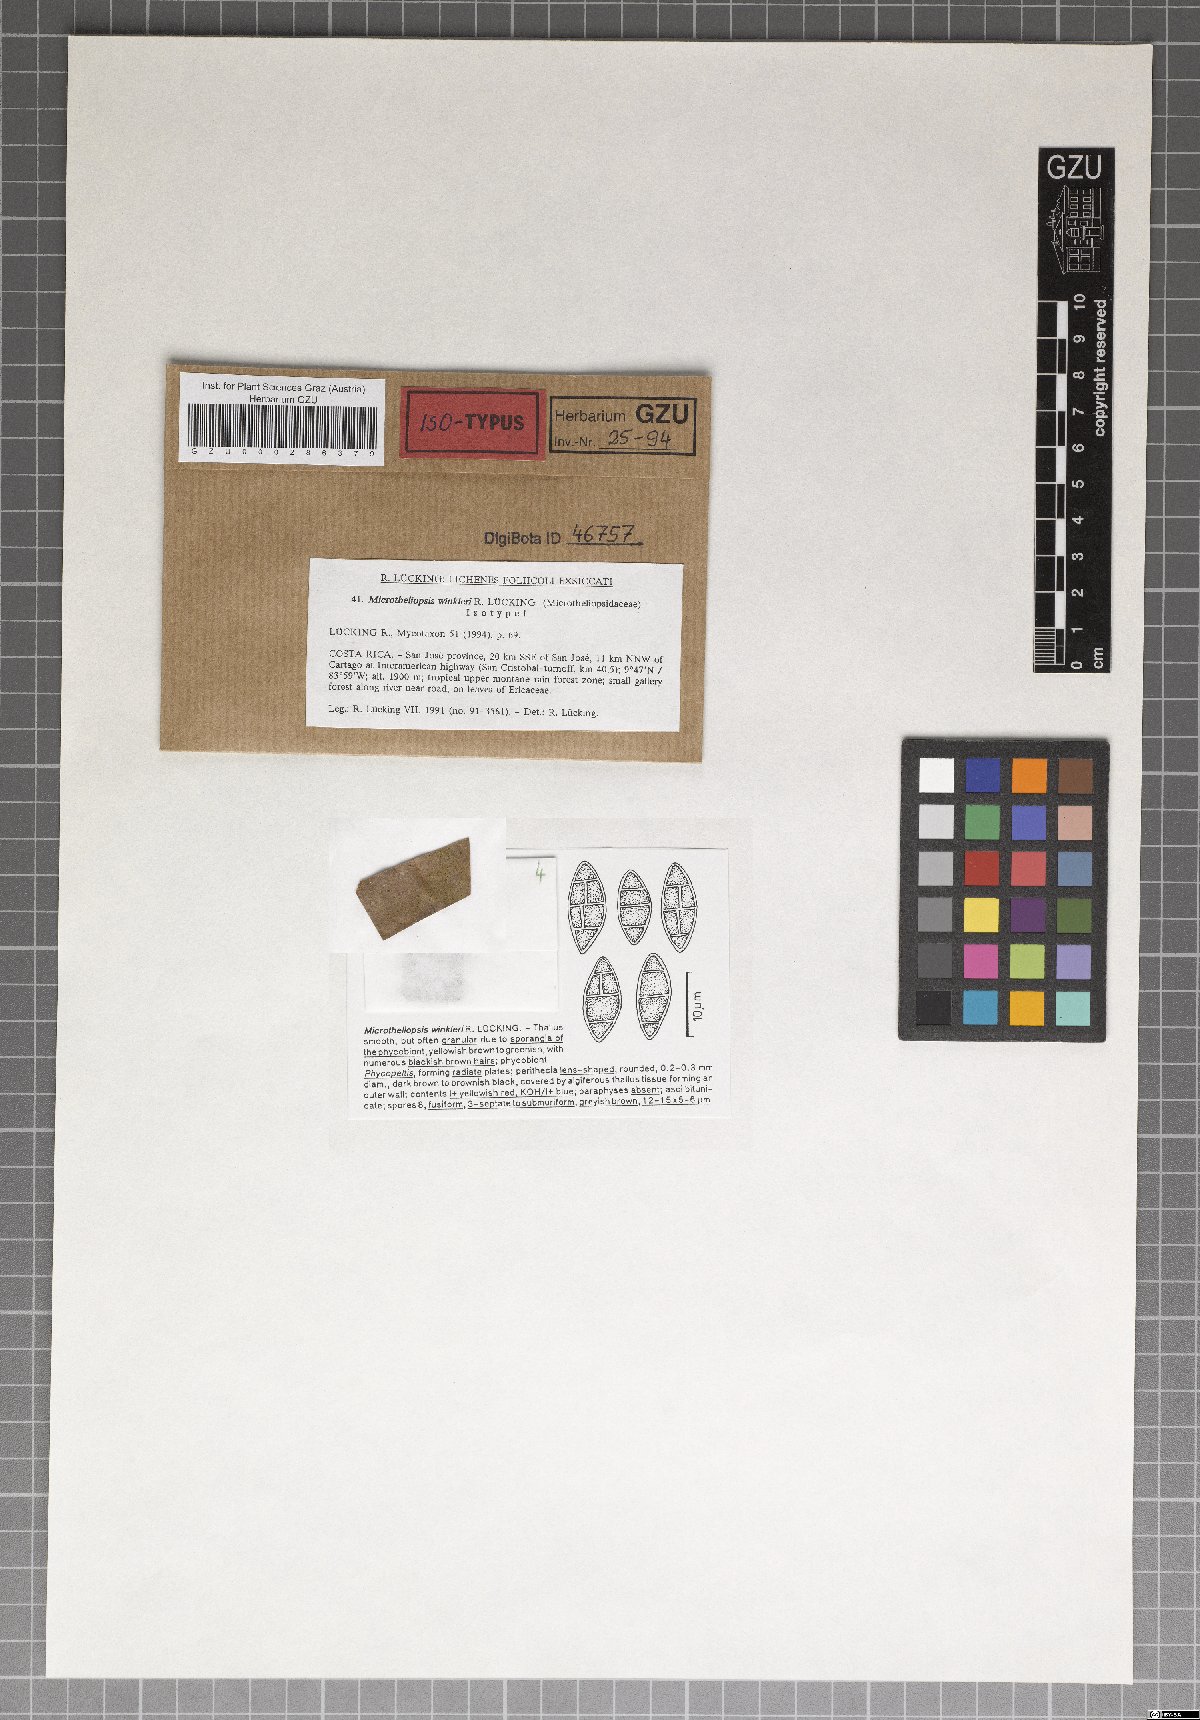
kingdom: Fungi
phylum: Ascomycota
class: Eurotiomycetes
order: Chaetothyriales
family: Microtheliopsidaceae
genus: Microtheliopsis
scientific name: Microtheliopsis winkleri
